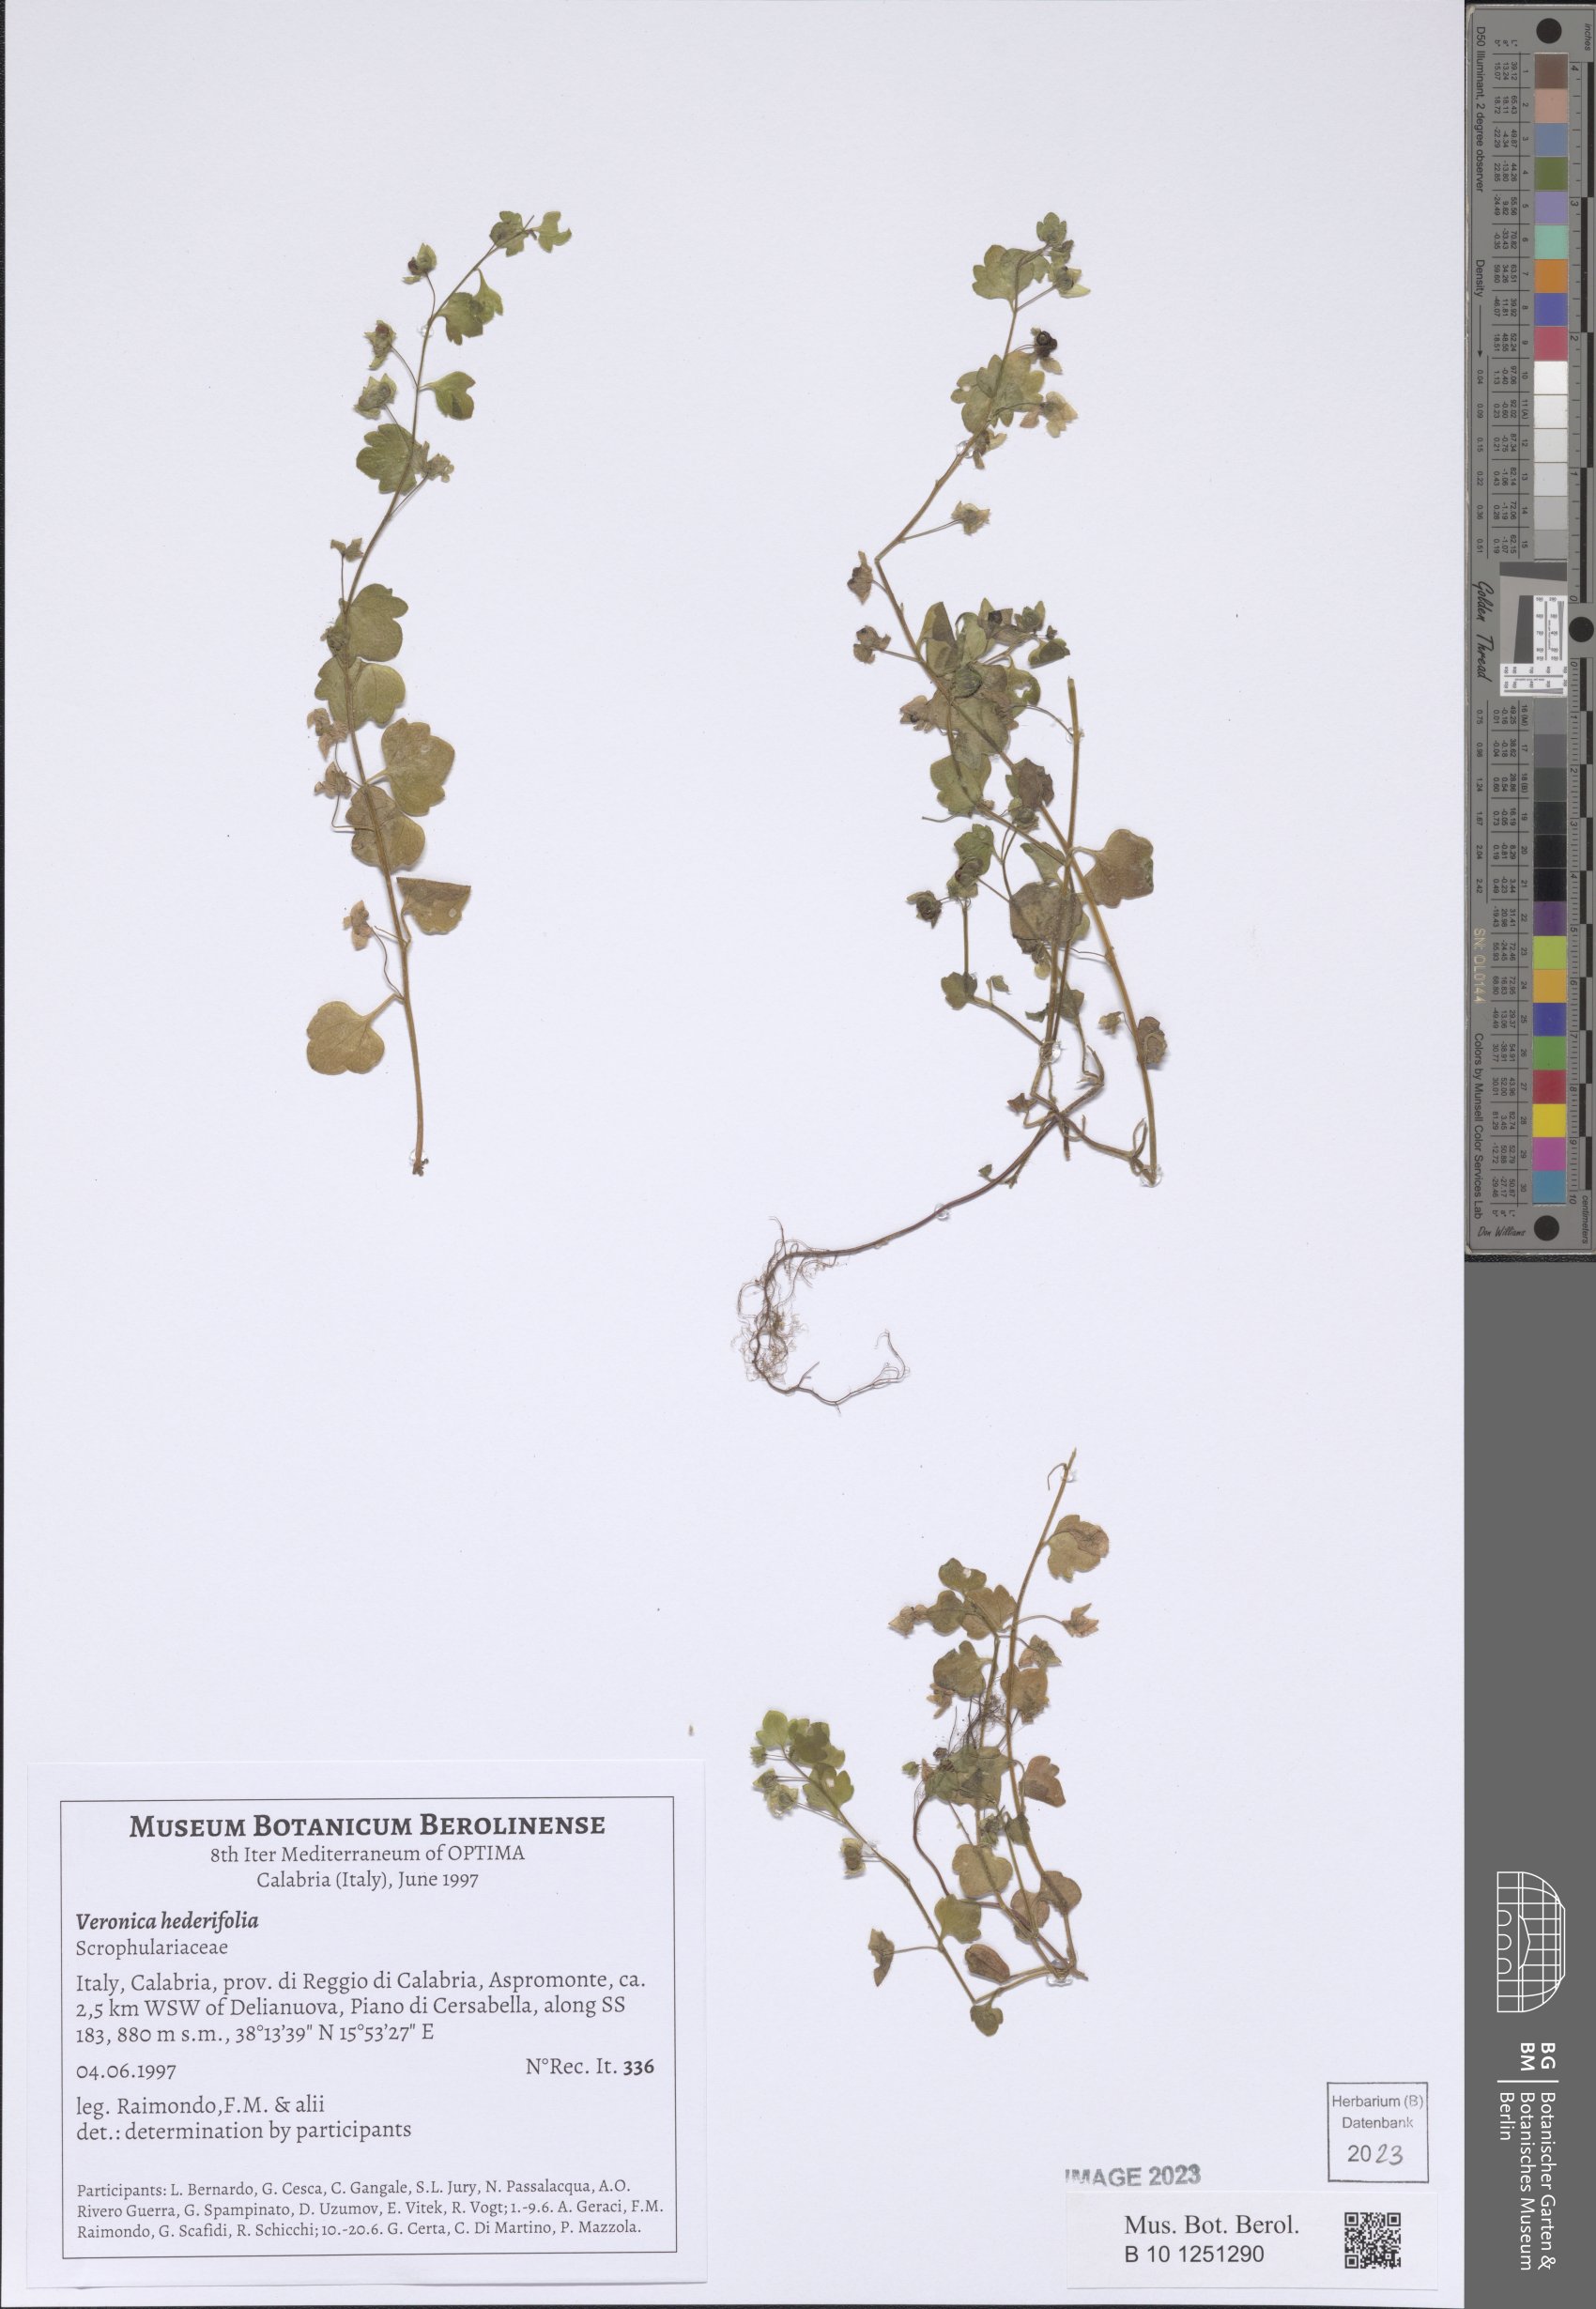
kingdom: Plantae
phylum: Tracheophyta
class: Magnoliopsida
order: Lamiales
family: Plantaginaceae
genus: Veronica
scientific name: Veronica hederifolia
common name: Ivy-leaved speedwell
